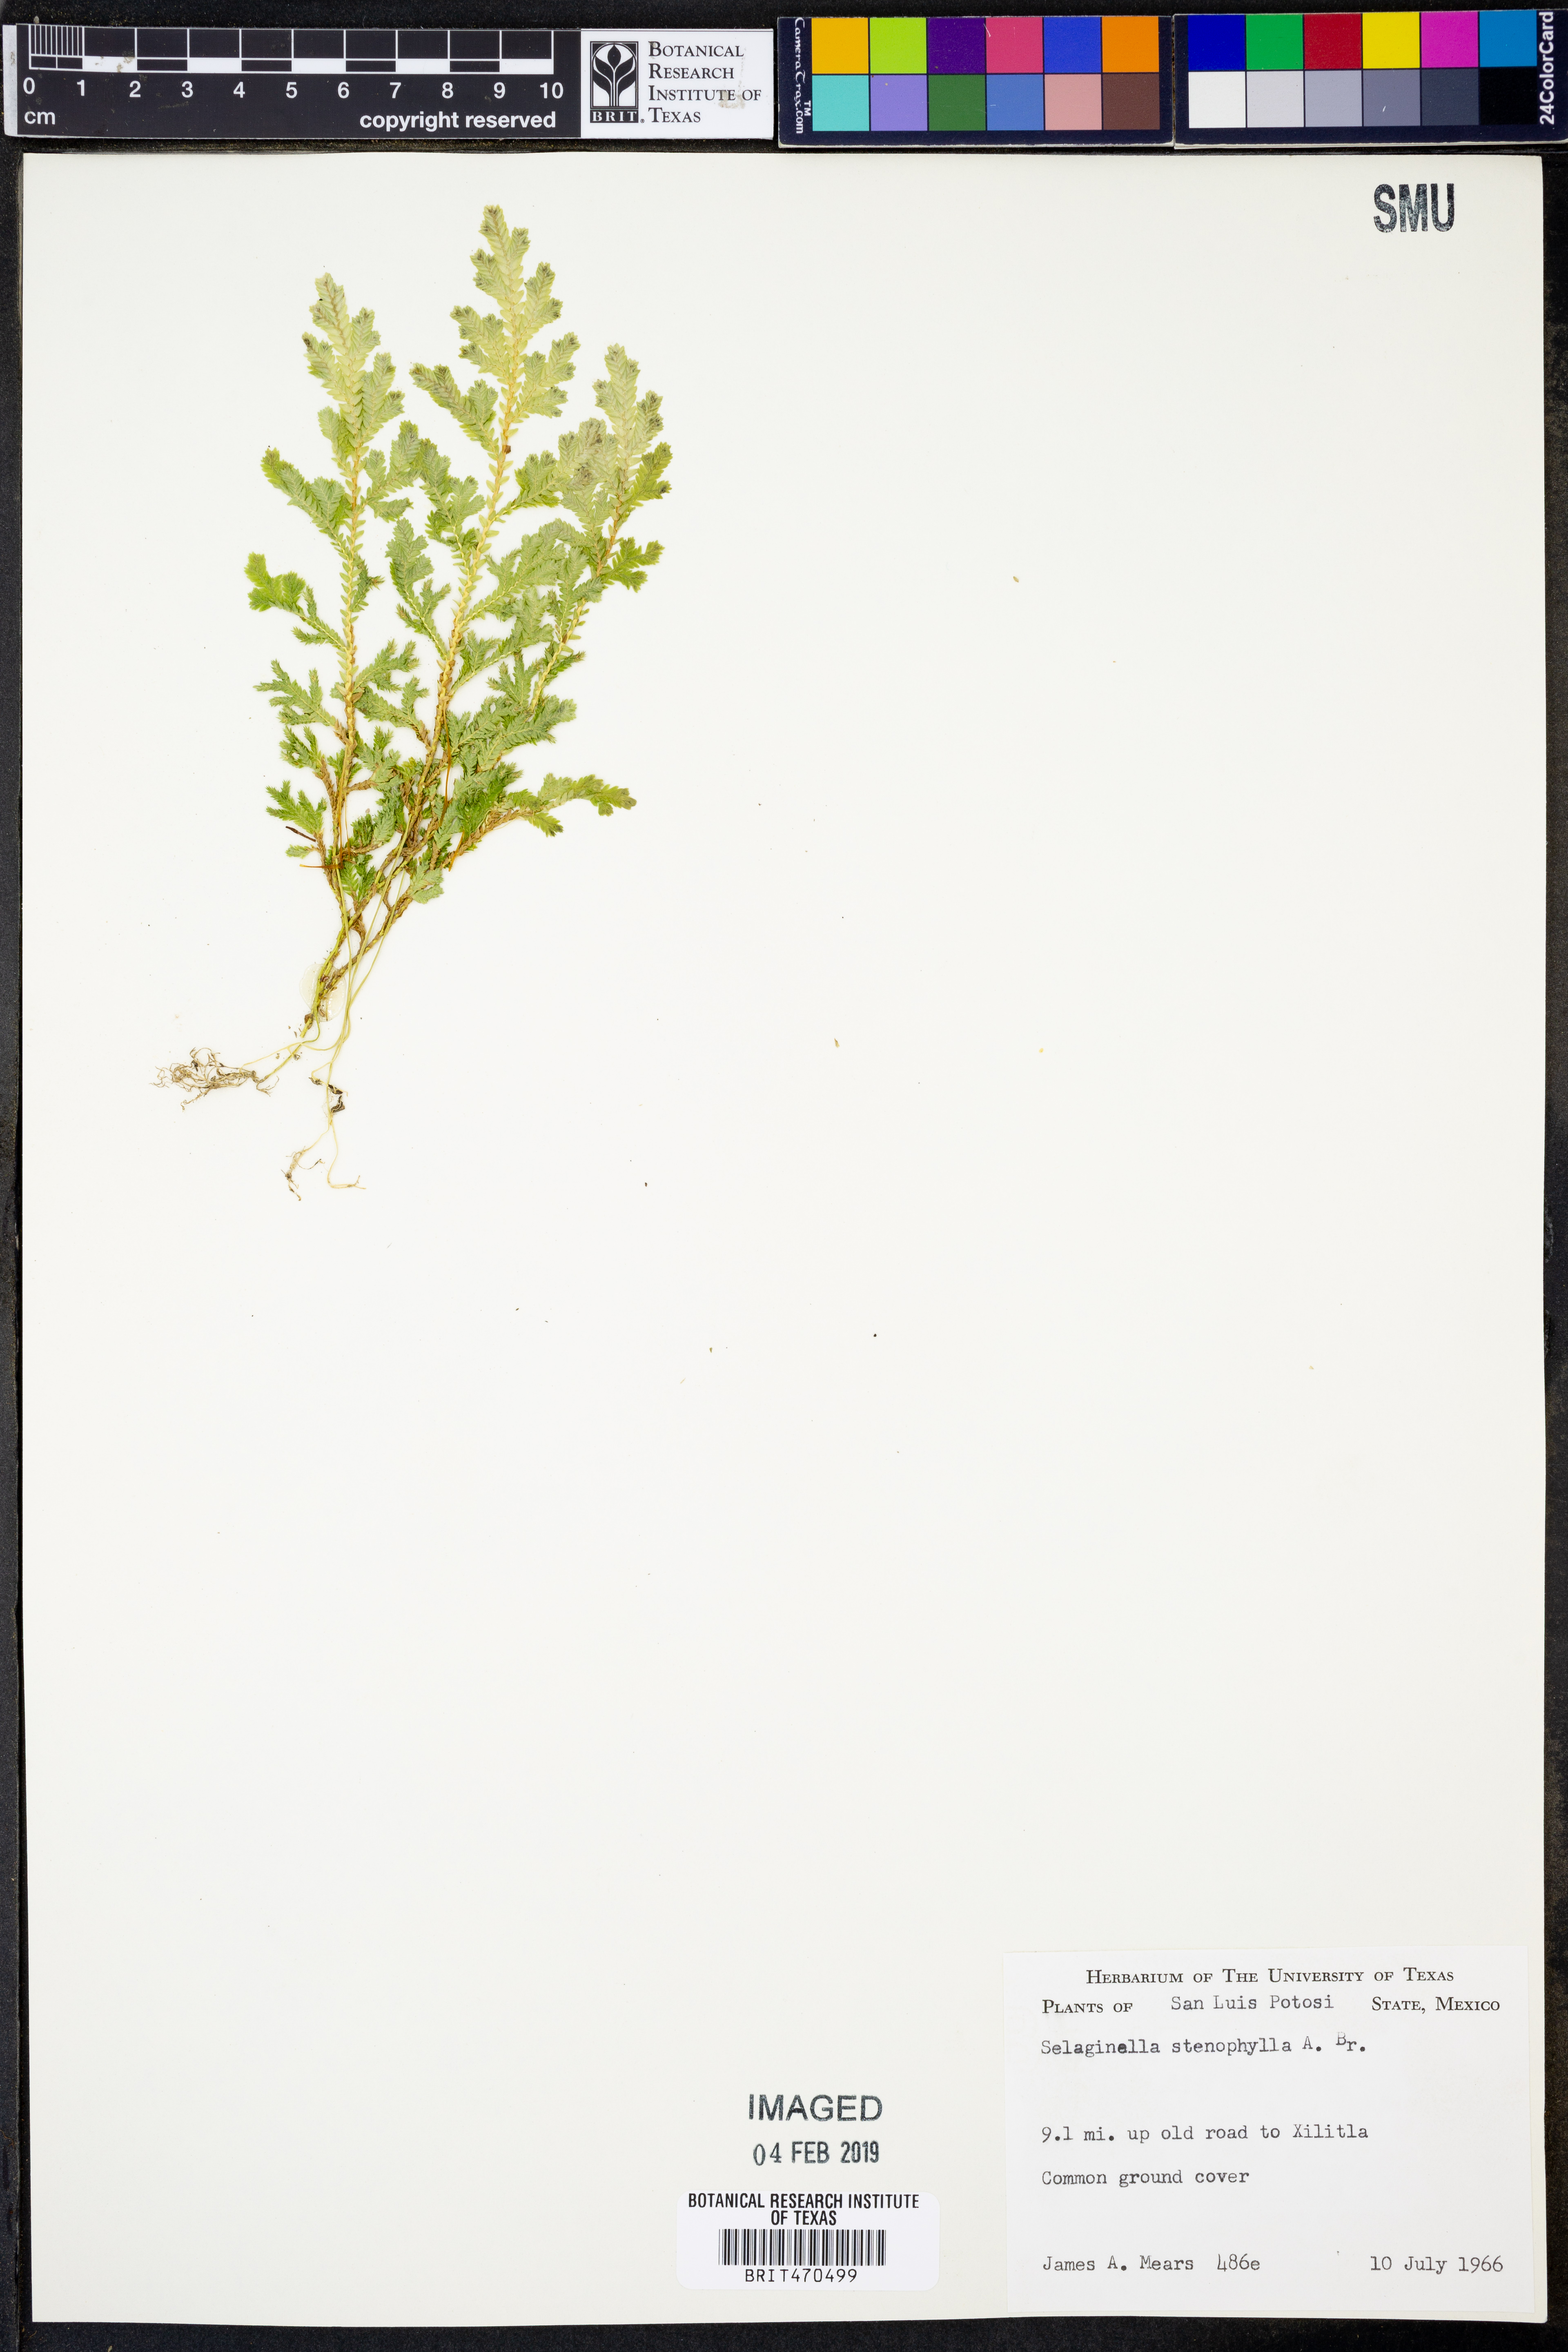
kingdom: Plantae
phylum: Tracheophyta
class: Lycopodiopsida
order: Selaginellales
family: Selaginellaceae
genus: Selaginella
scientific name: Selaginella stenophylla
